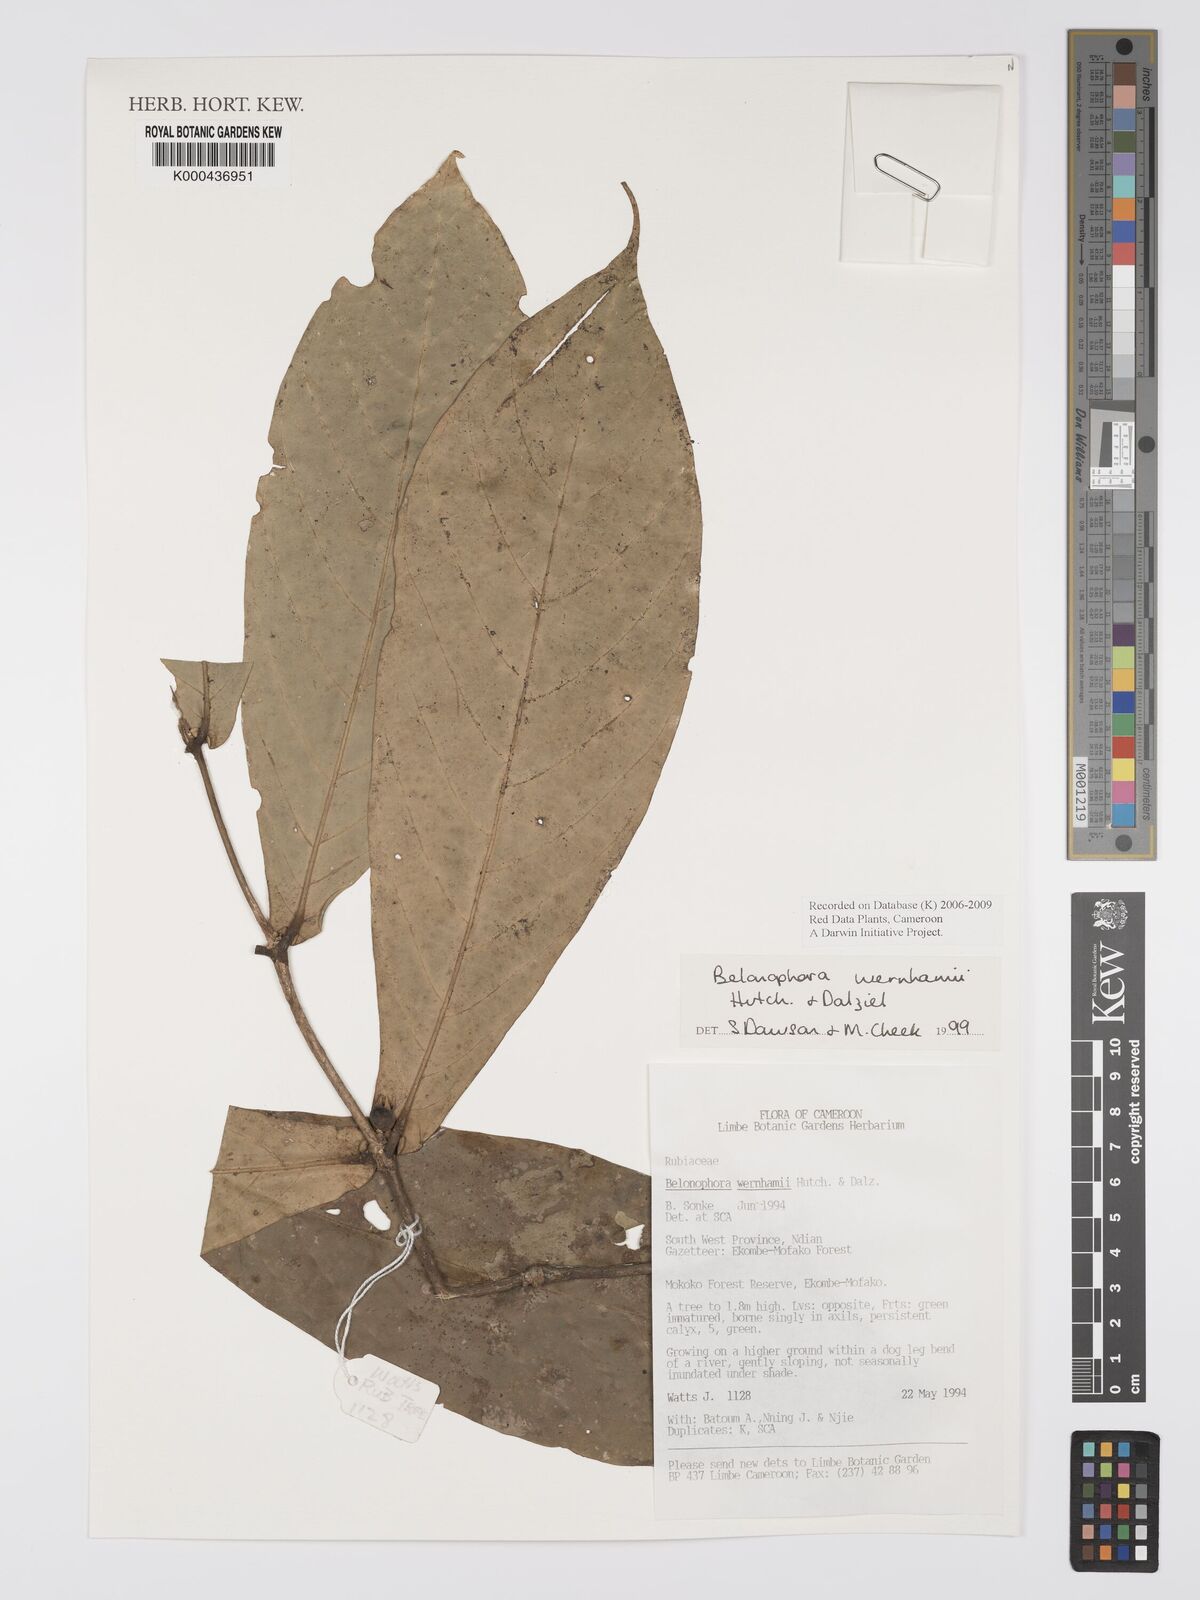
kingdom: Plantae
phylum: Tracheophyta
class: Magnoliopsida
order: Gentianales
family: Rubiaceae
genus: Belonophora
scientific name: Belonophora wernhamii
